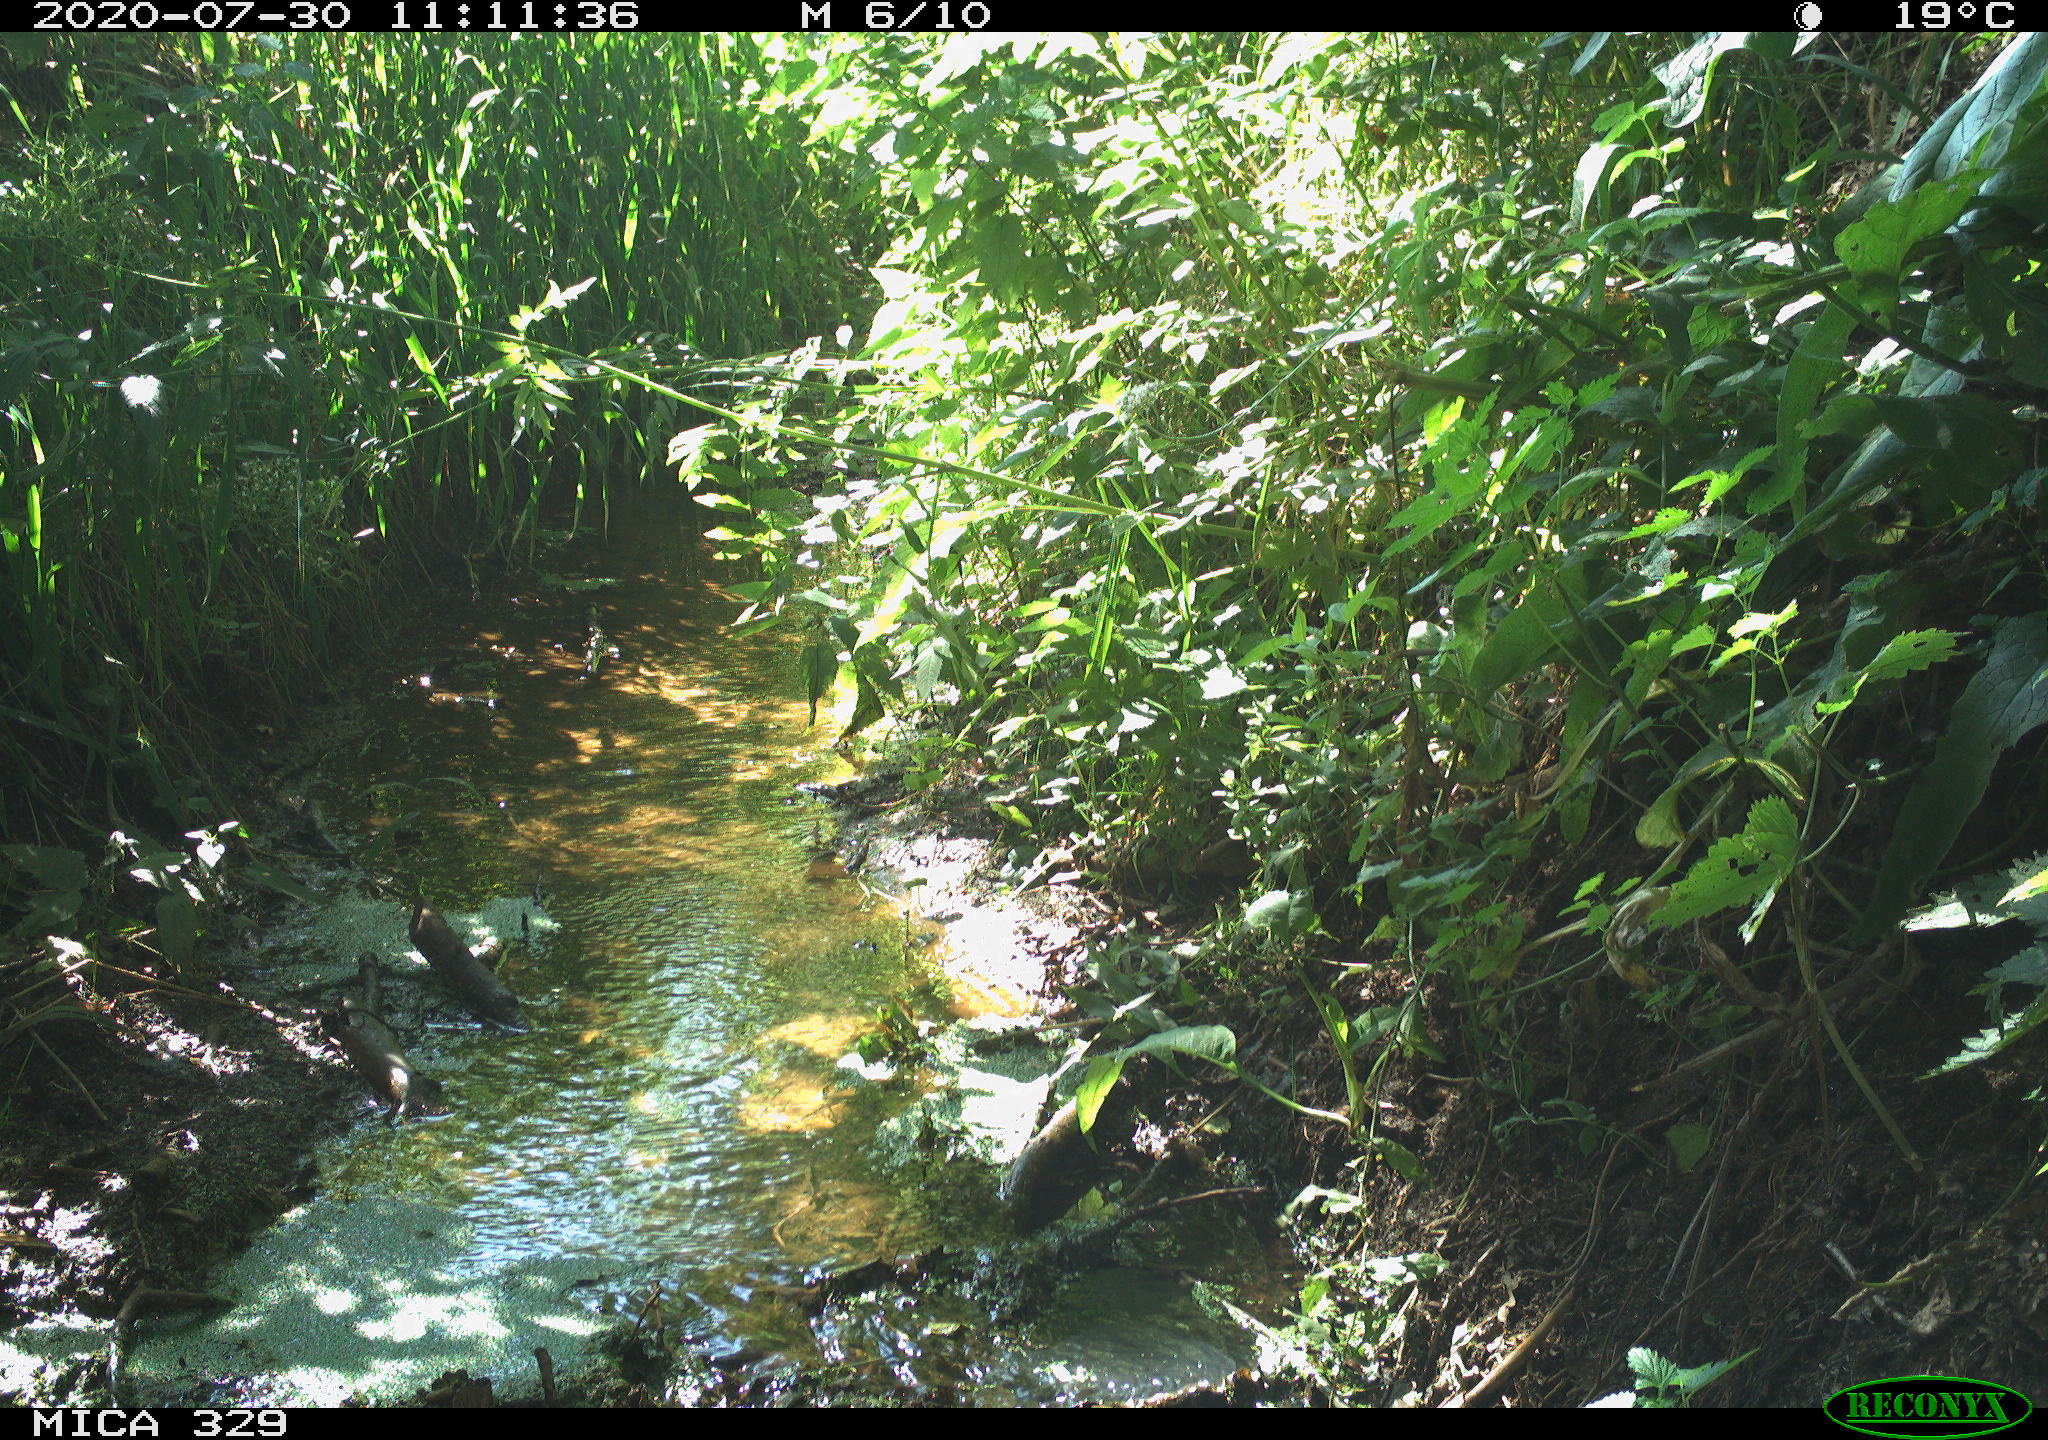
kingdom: Animalia
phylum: Chordata
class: Aves
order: Columbiformes
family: Columbidae
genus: Columba
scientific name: Columba palumbus
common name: Common wood pigeon
